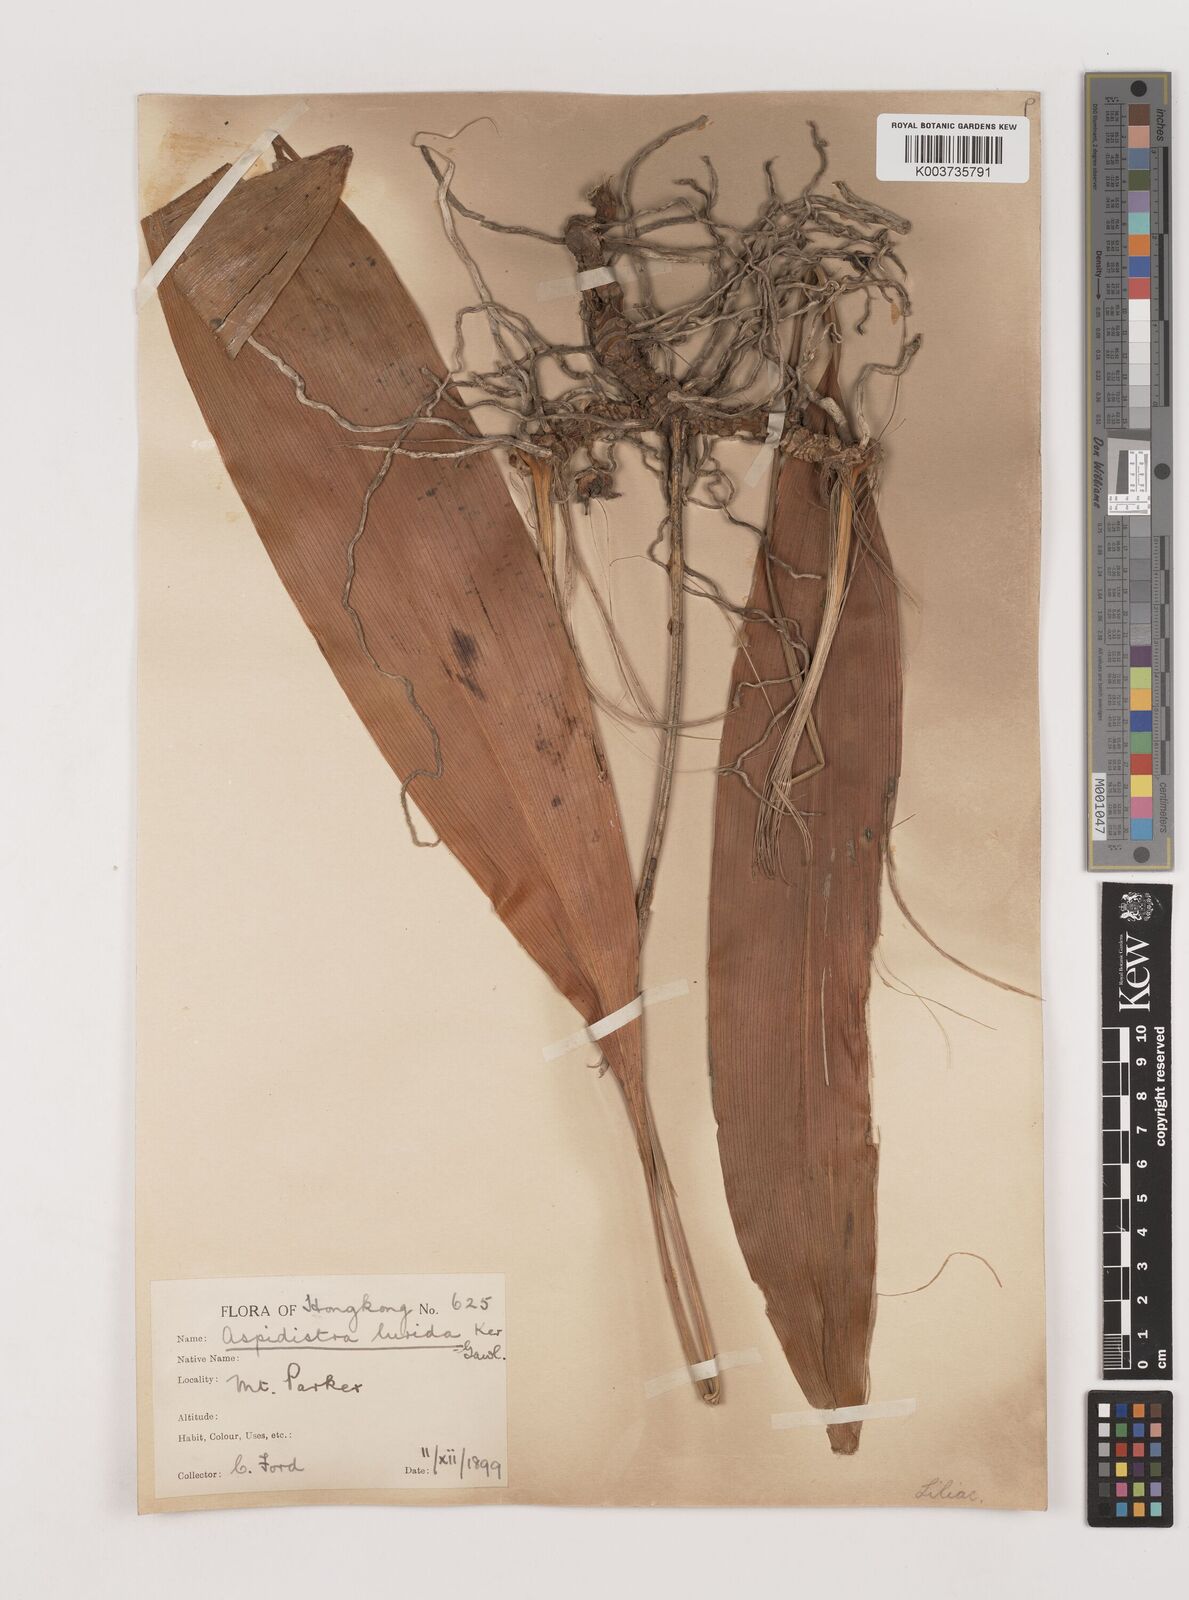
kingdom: Plantae
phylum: Tracheophyta
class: Liliopsida
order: Asparagales
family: Asparagaceae
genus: Aspidistra
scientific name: Aspidistra lurida
